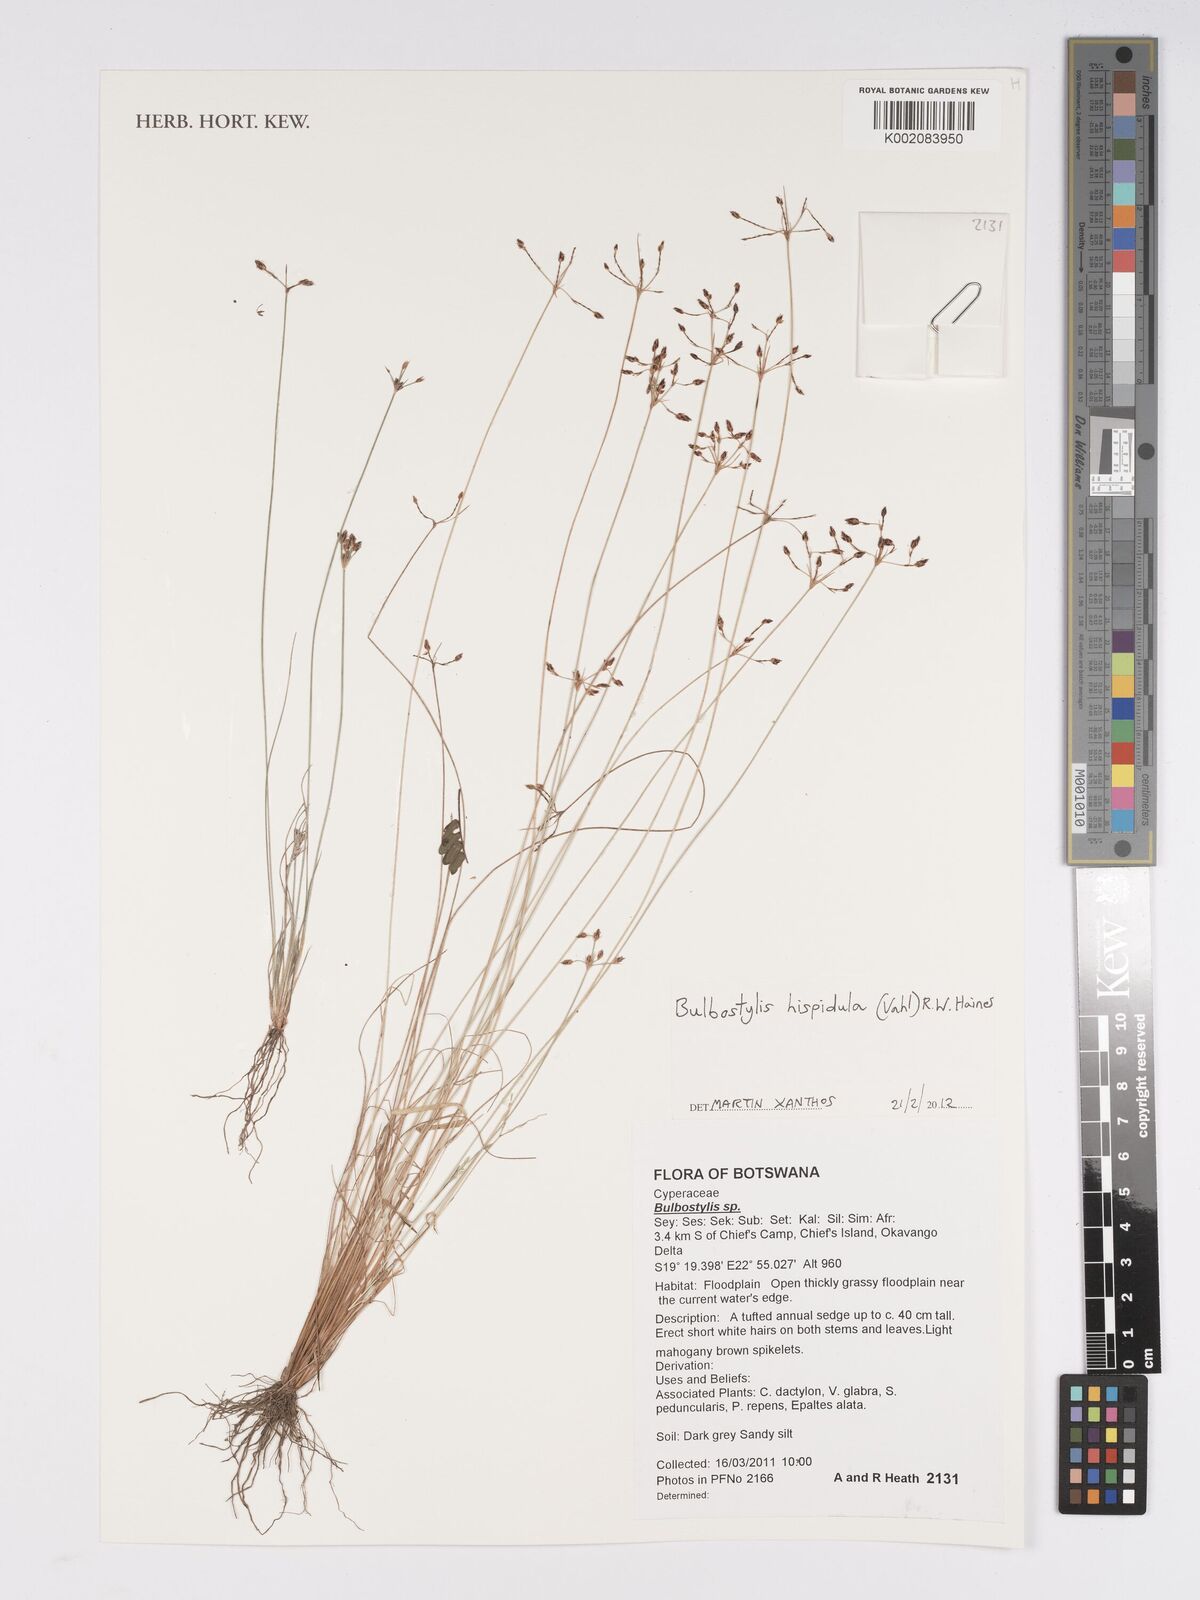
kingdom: Plantae
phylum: Tracheophyta
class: Liliopsida
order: Poales
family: Cyperaceae
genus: Bulbostylis
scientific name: Bulbostylis hispidula
